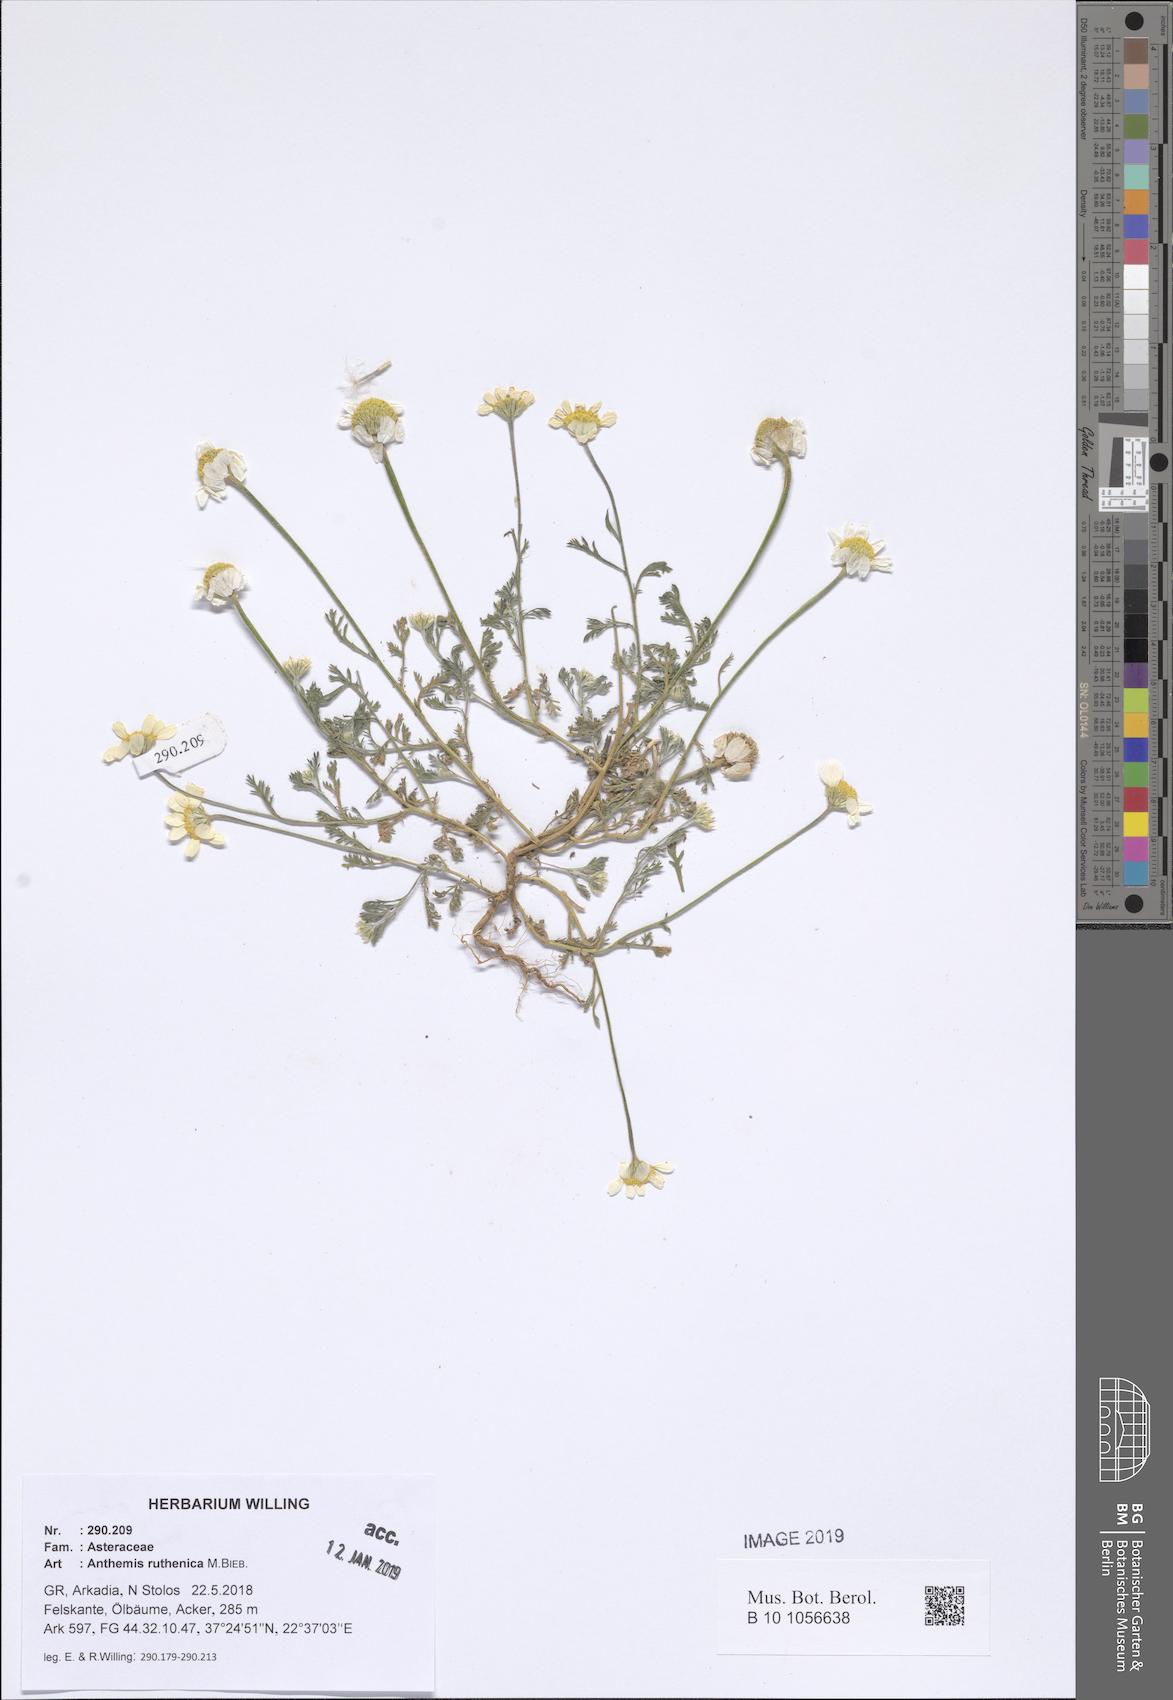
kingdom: Plantae
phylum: Tracheophyta
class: Magnoliopsida
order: Asterales
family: Asteraceae
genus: Anthemis
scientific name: Anthemis ruthenica
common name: Eastern chamomile
